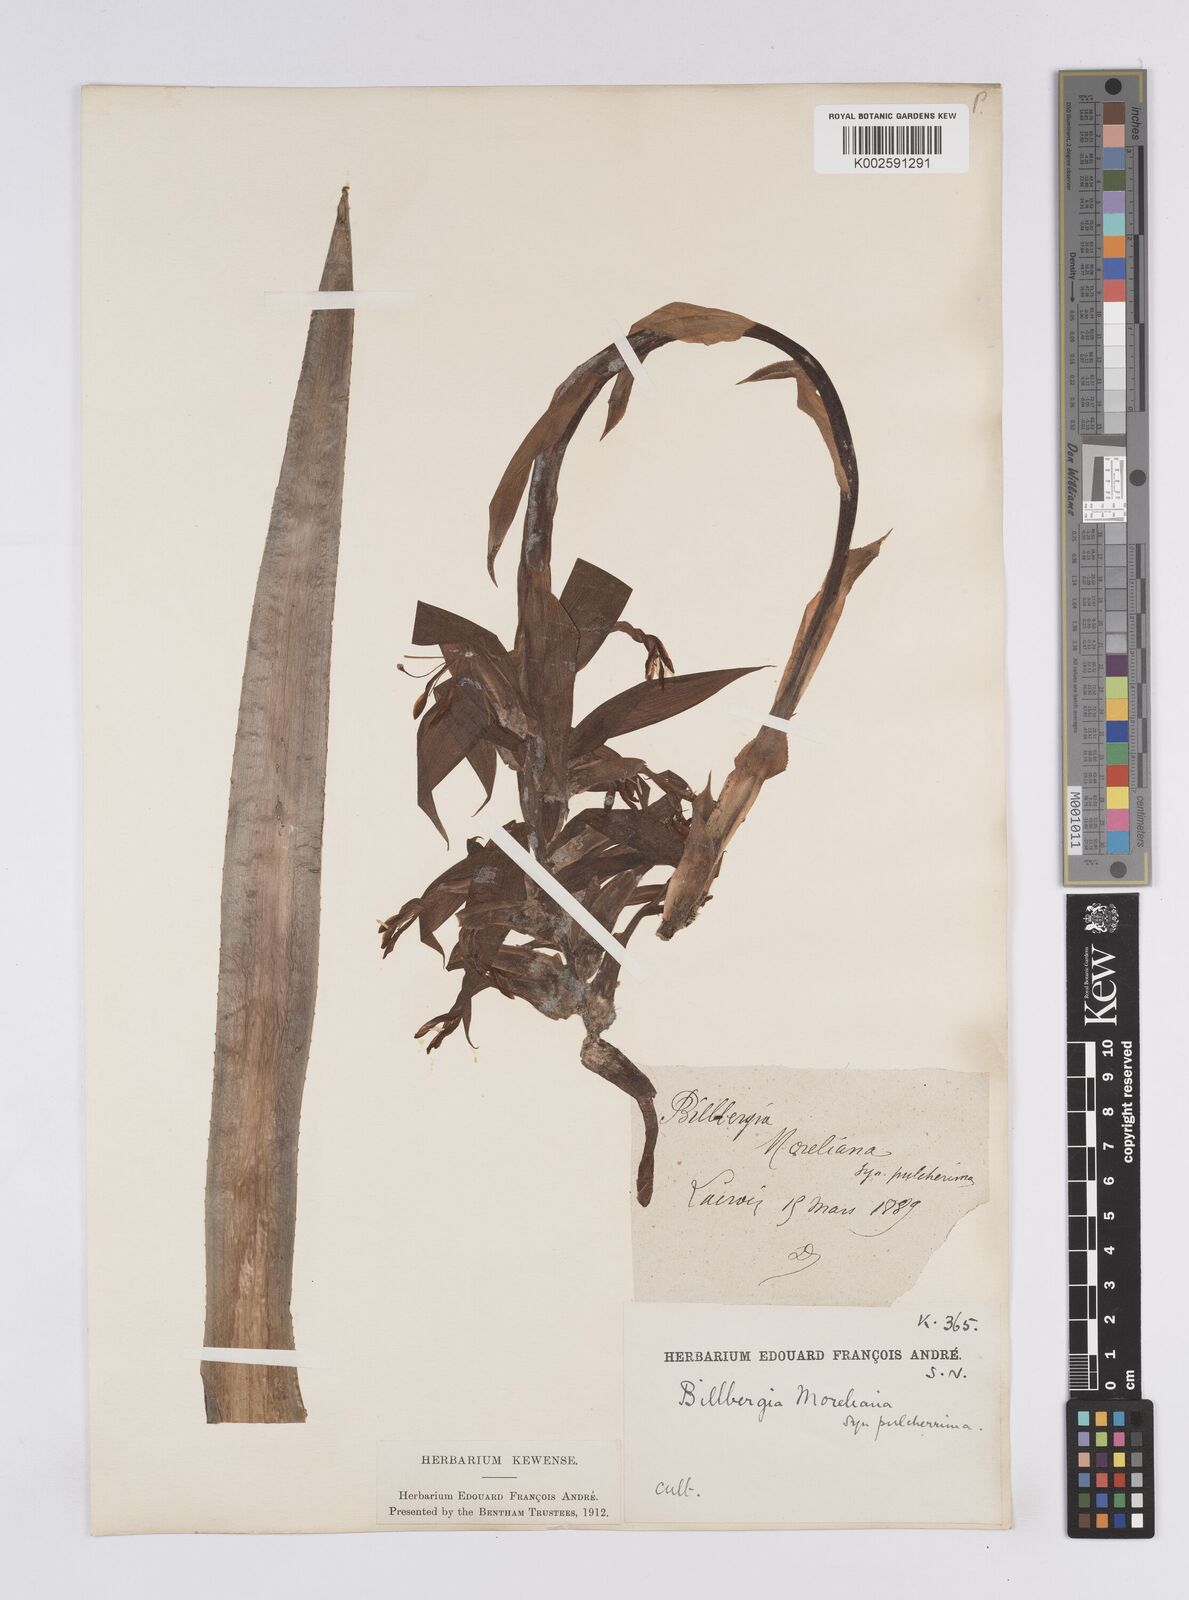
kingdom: Plantae
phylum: Tracheophyta
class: Liliopsida
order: Poales
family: Bromeliaceae
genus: Billbergia
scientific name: Billbergia morelii
